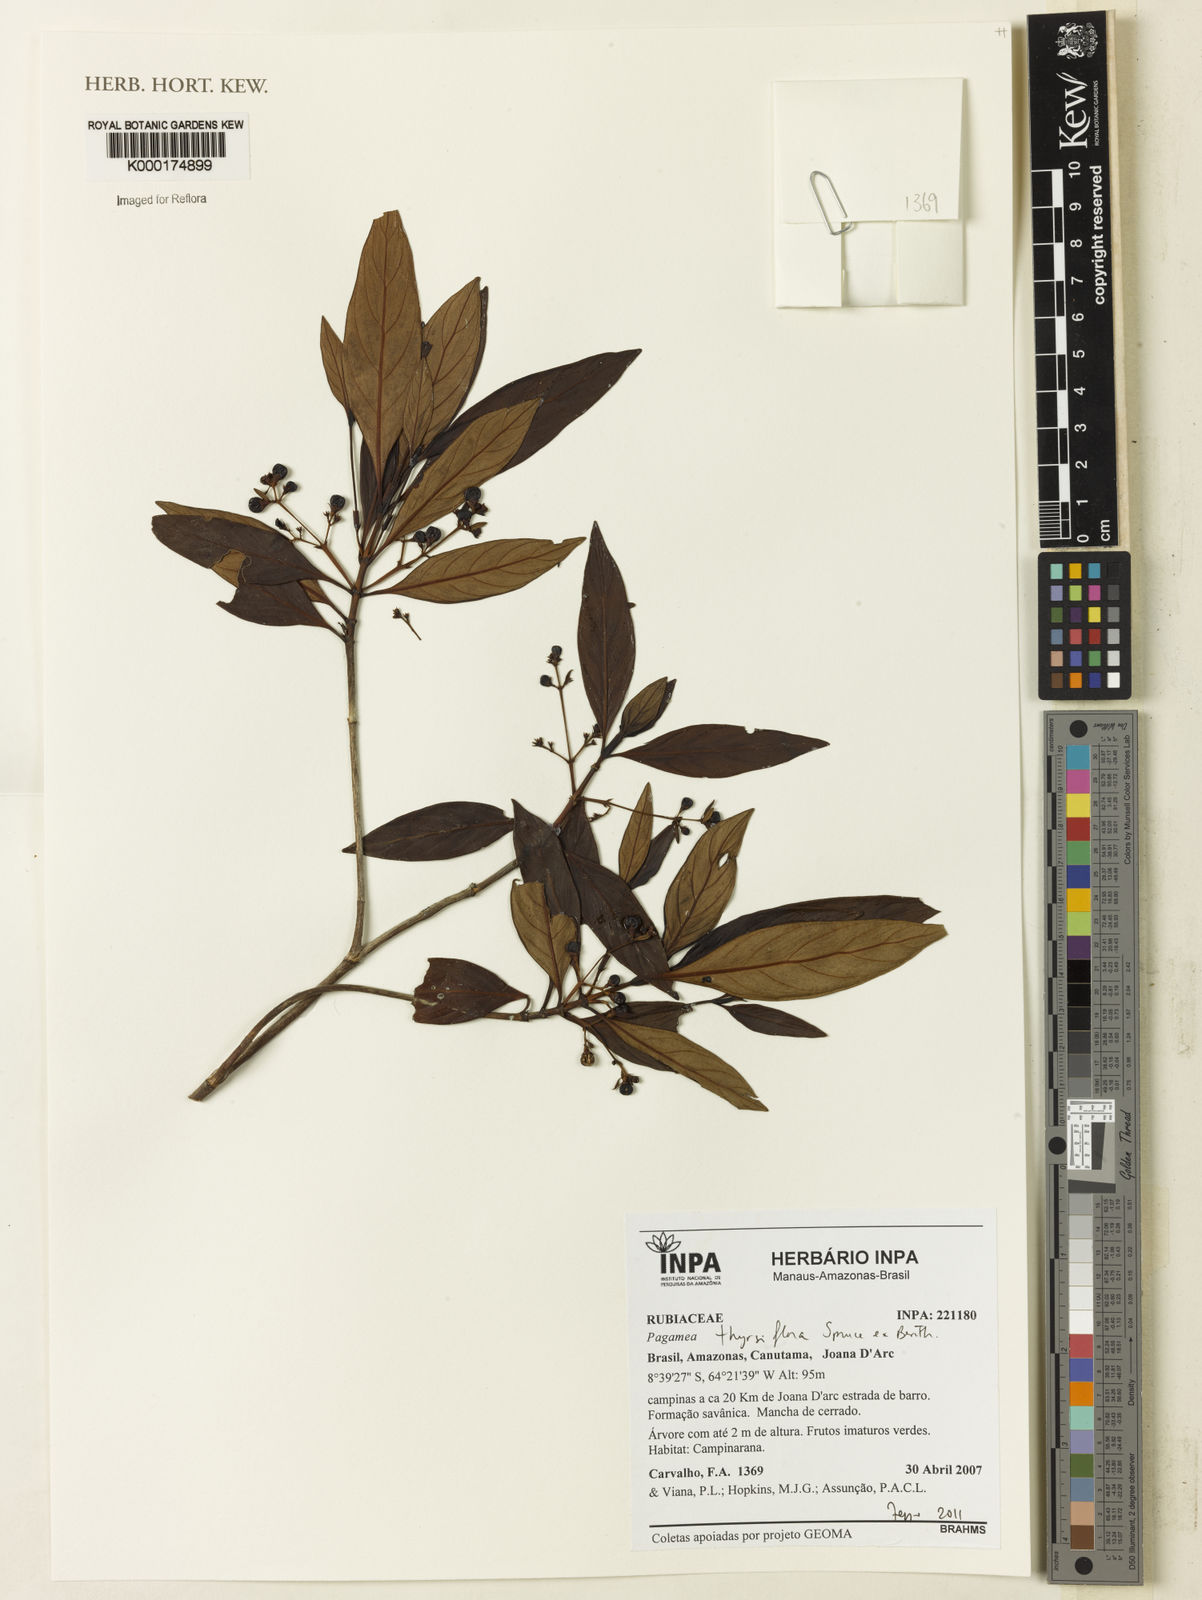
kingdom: Plantae
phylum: Tracheophyta
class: Magnoliopsida
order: Gentianales
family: Rubiaceae
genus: Pagamea
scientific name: Pagamea thyrsiflora
